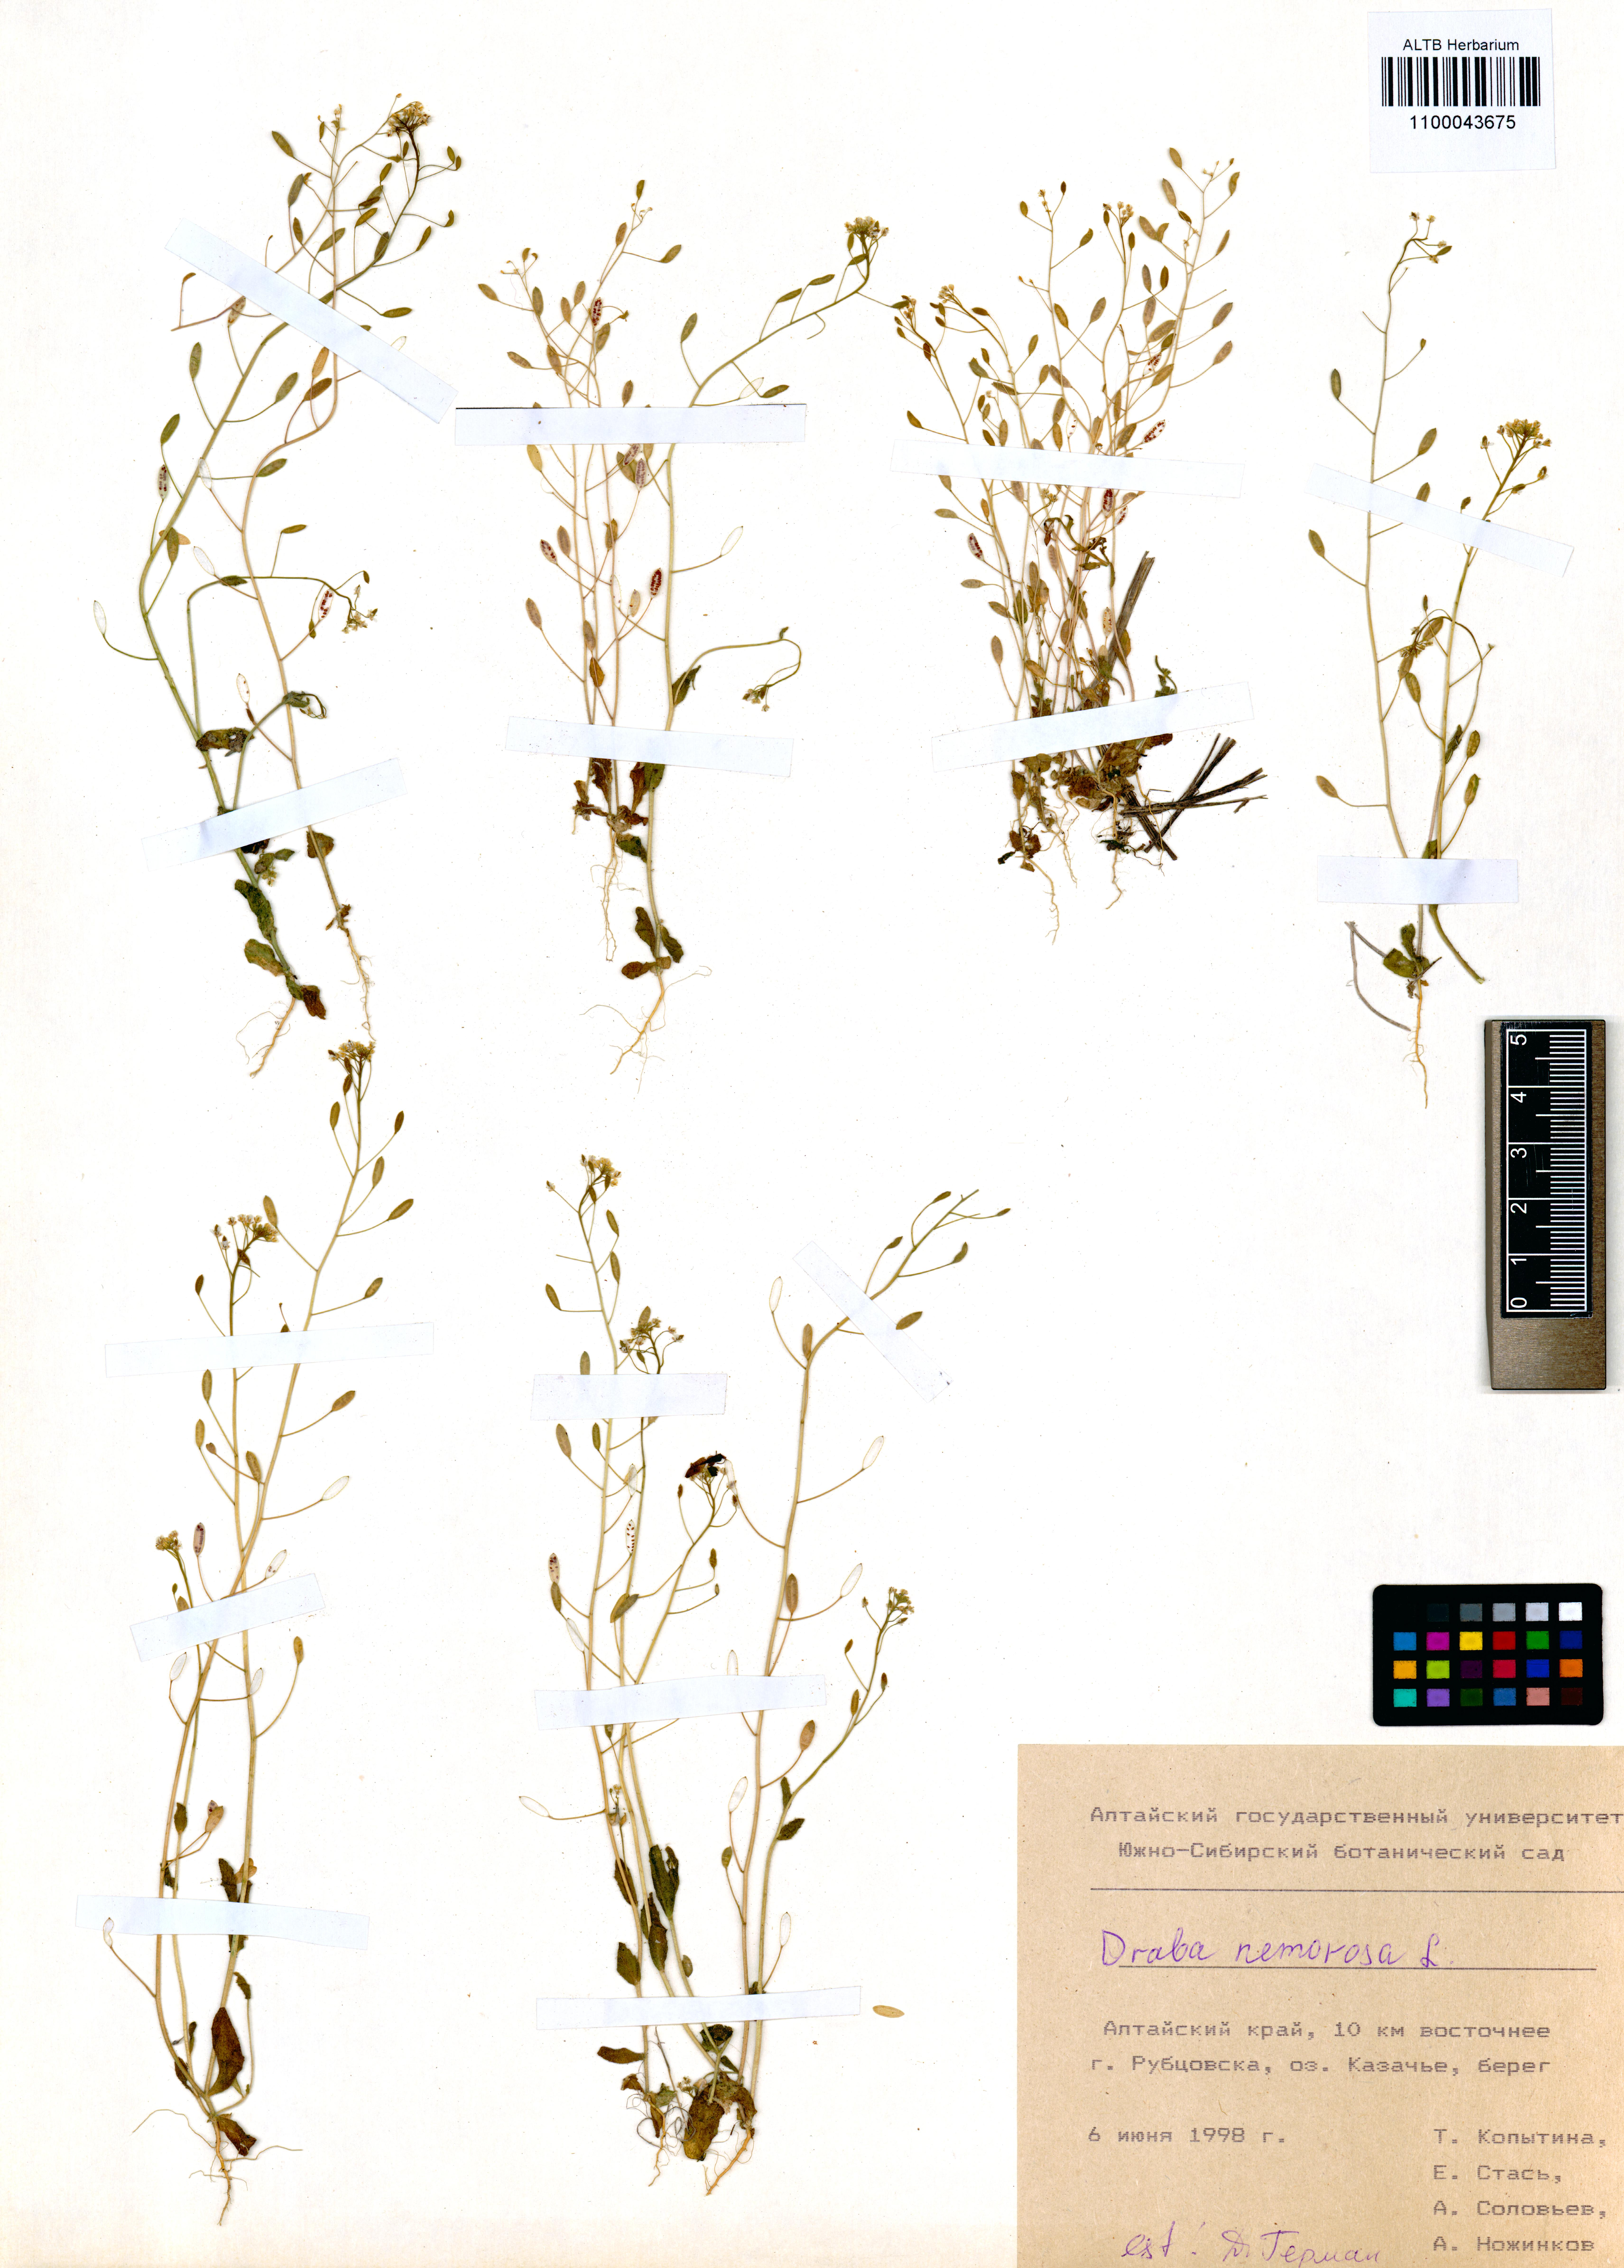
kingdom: Plantae
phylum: Tracheophyta
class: Magnoliopsida
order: Brassicales
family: Brassicaceae
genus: Draba
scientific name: Draba nemorosa
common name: Wood whitlow-grass
